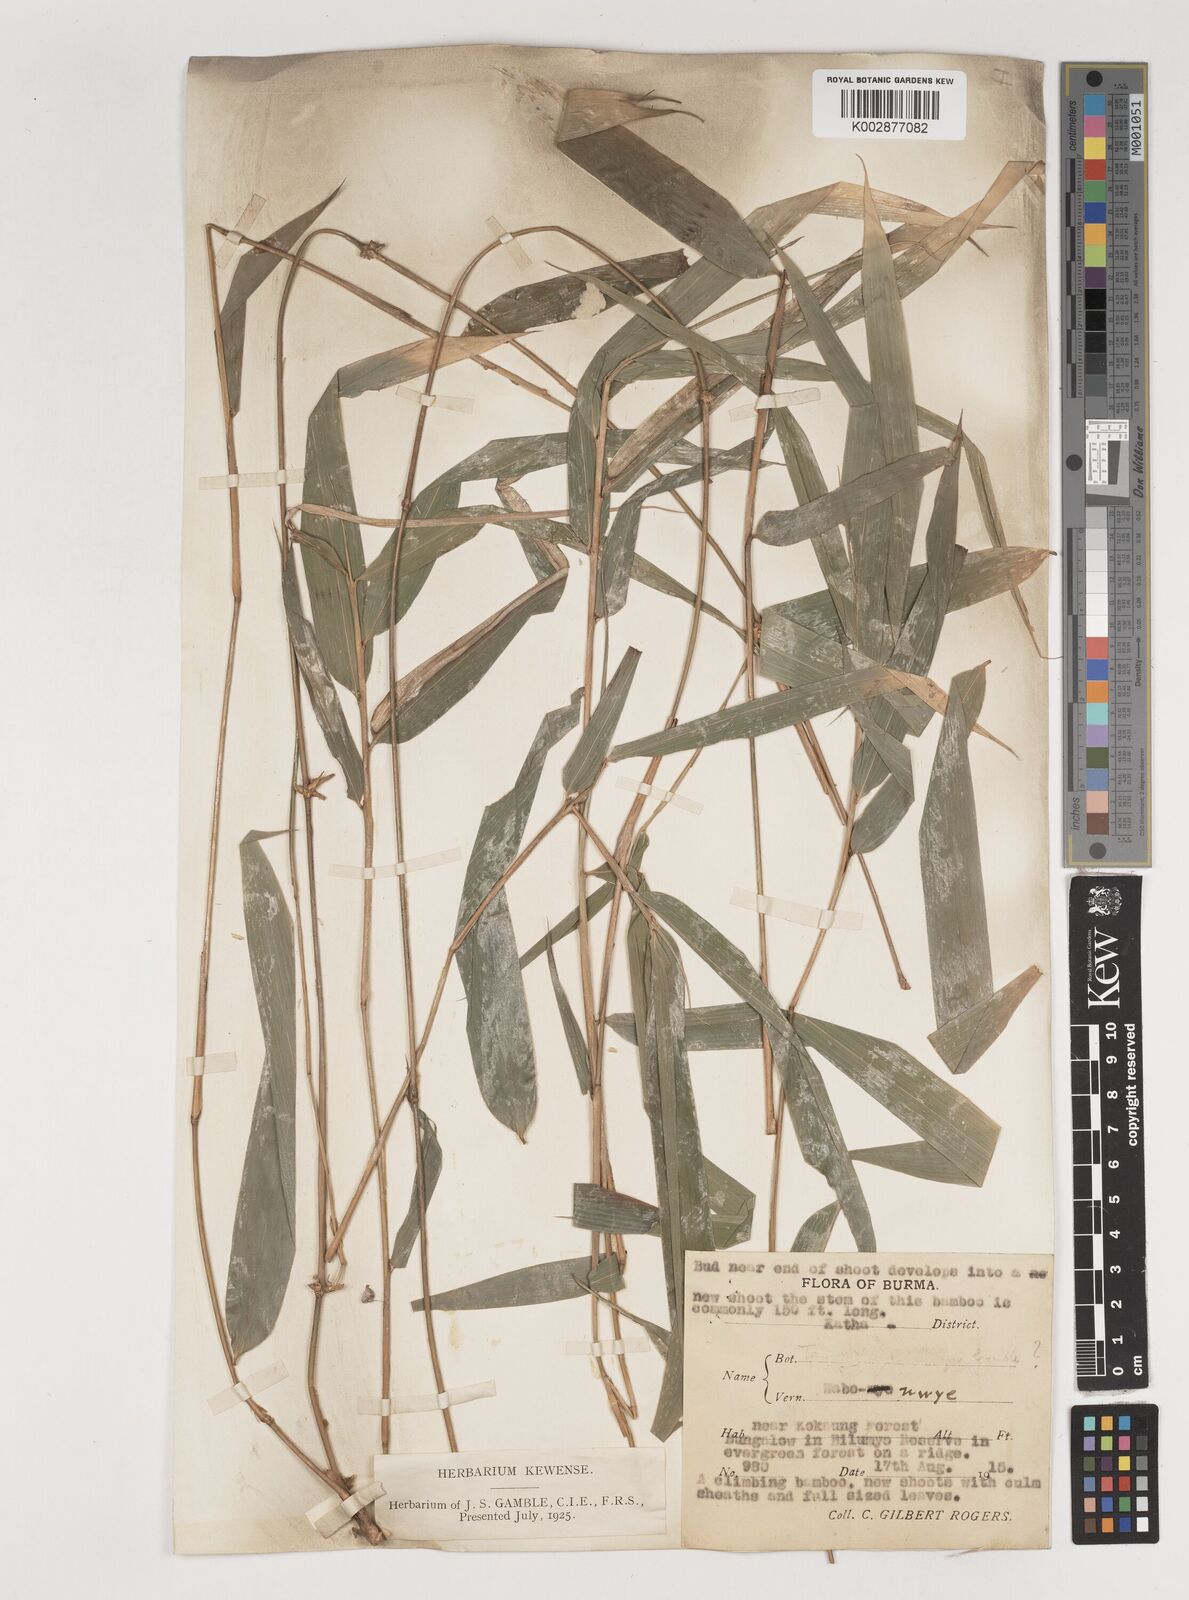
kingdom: Plantae
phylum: Tracheophyta
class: Liliopsida
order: Poales
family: Poaceae
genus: Bambusa
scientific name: Bambusa
